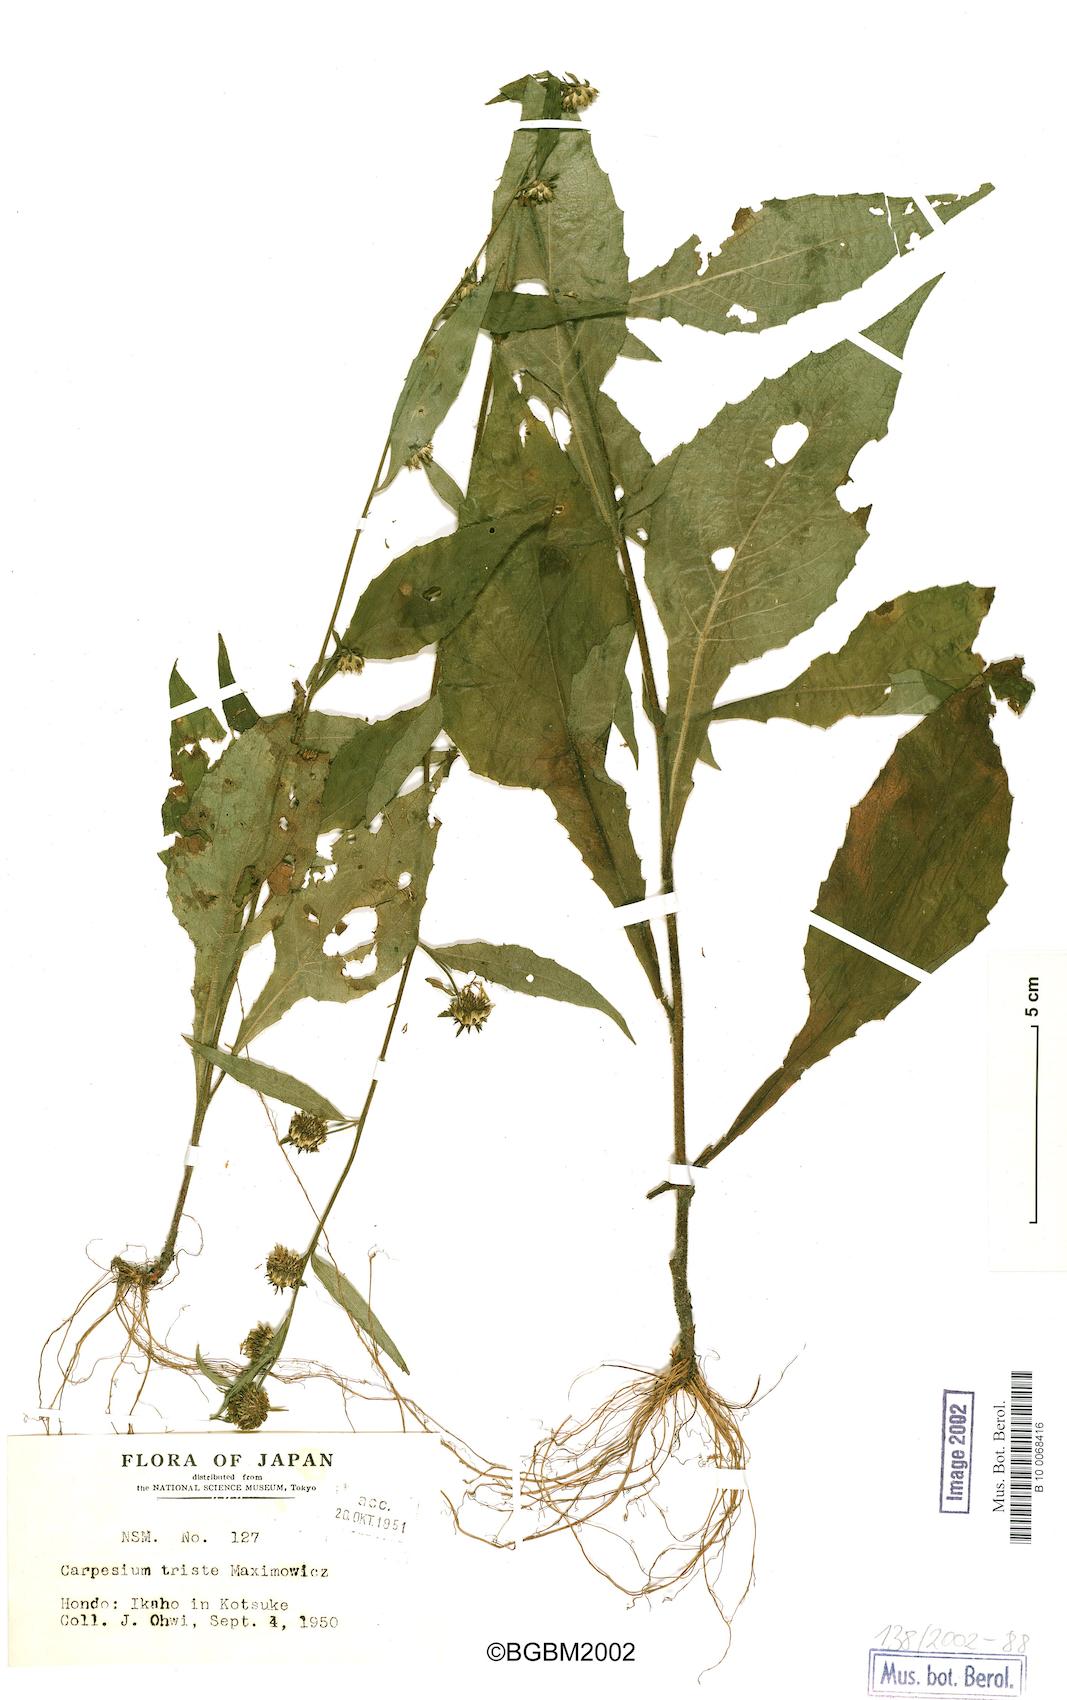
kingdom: Plantae
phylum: Tracheophyta
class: Magnoliopsida
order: Asterales
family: Asteraceae
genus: Carpesium
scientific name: Carpesium triste
